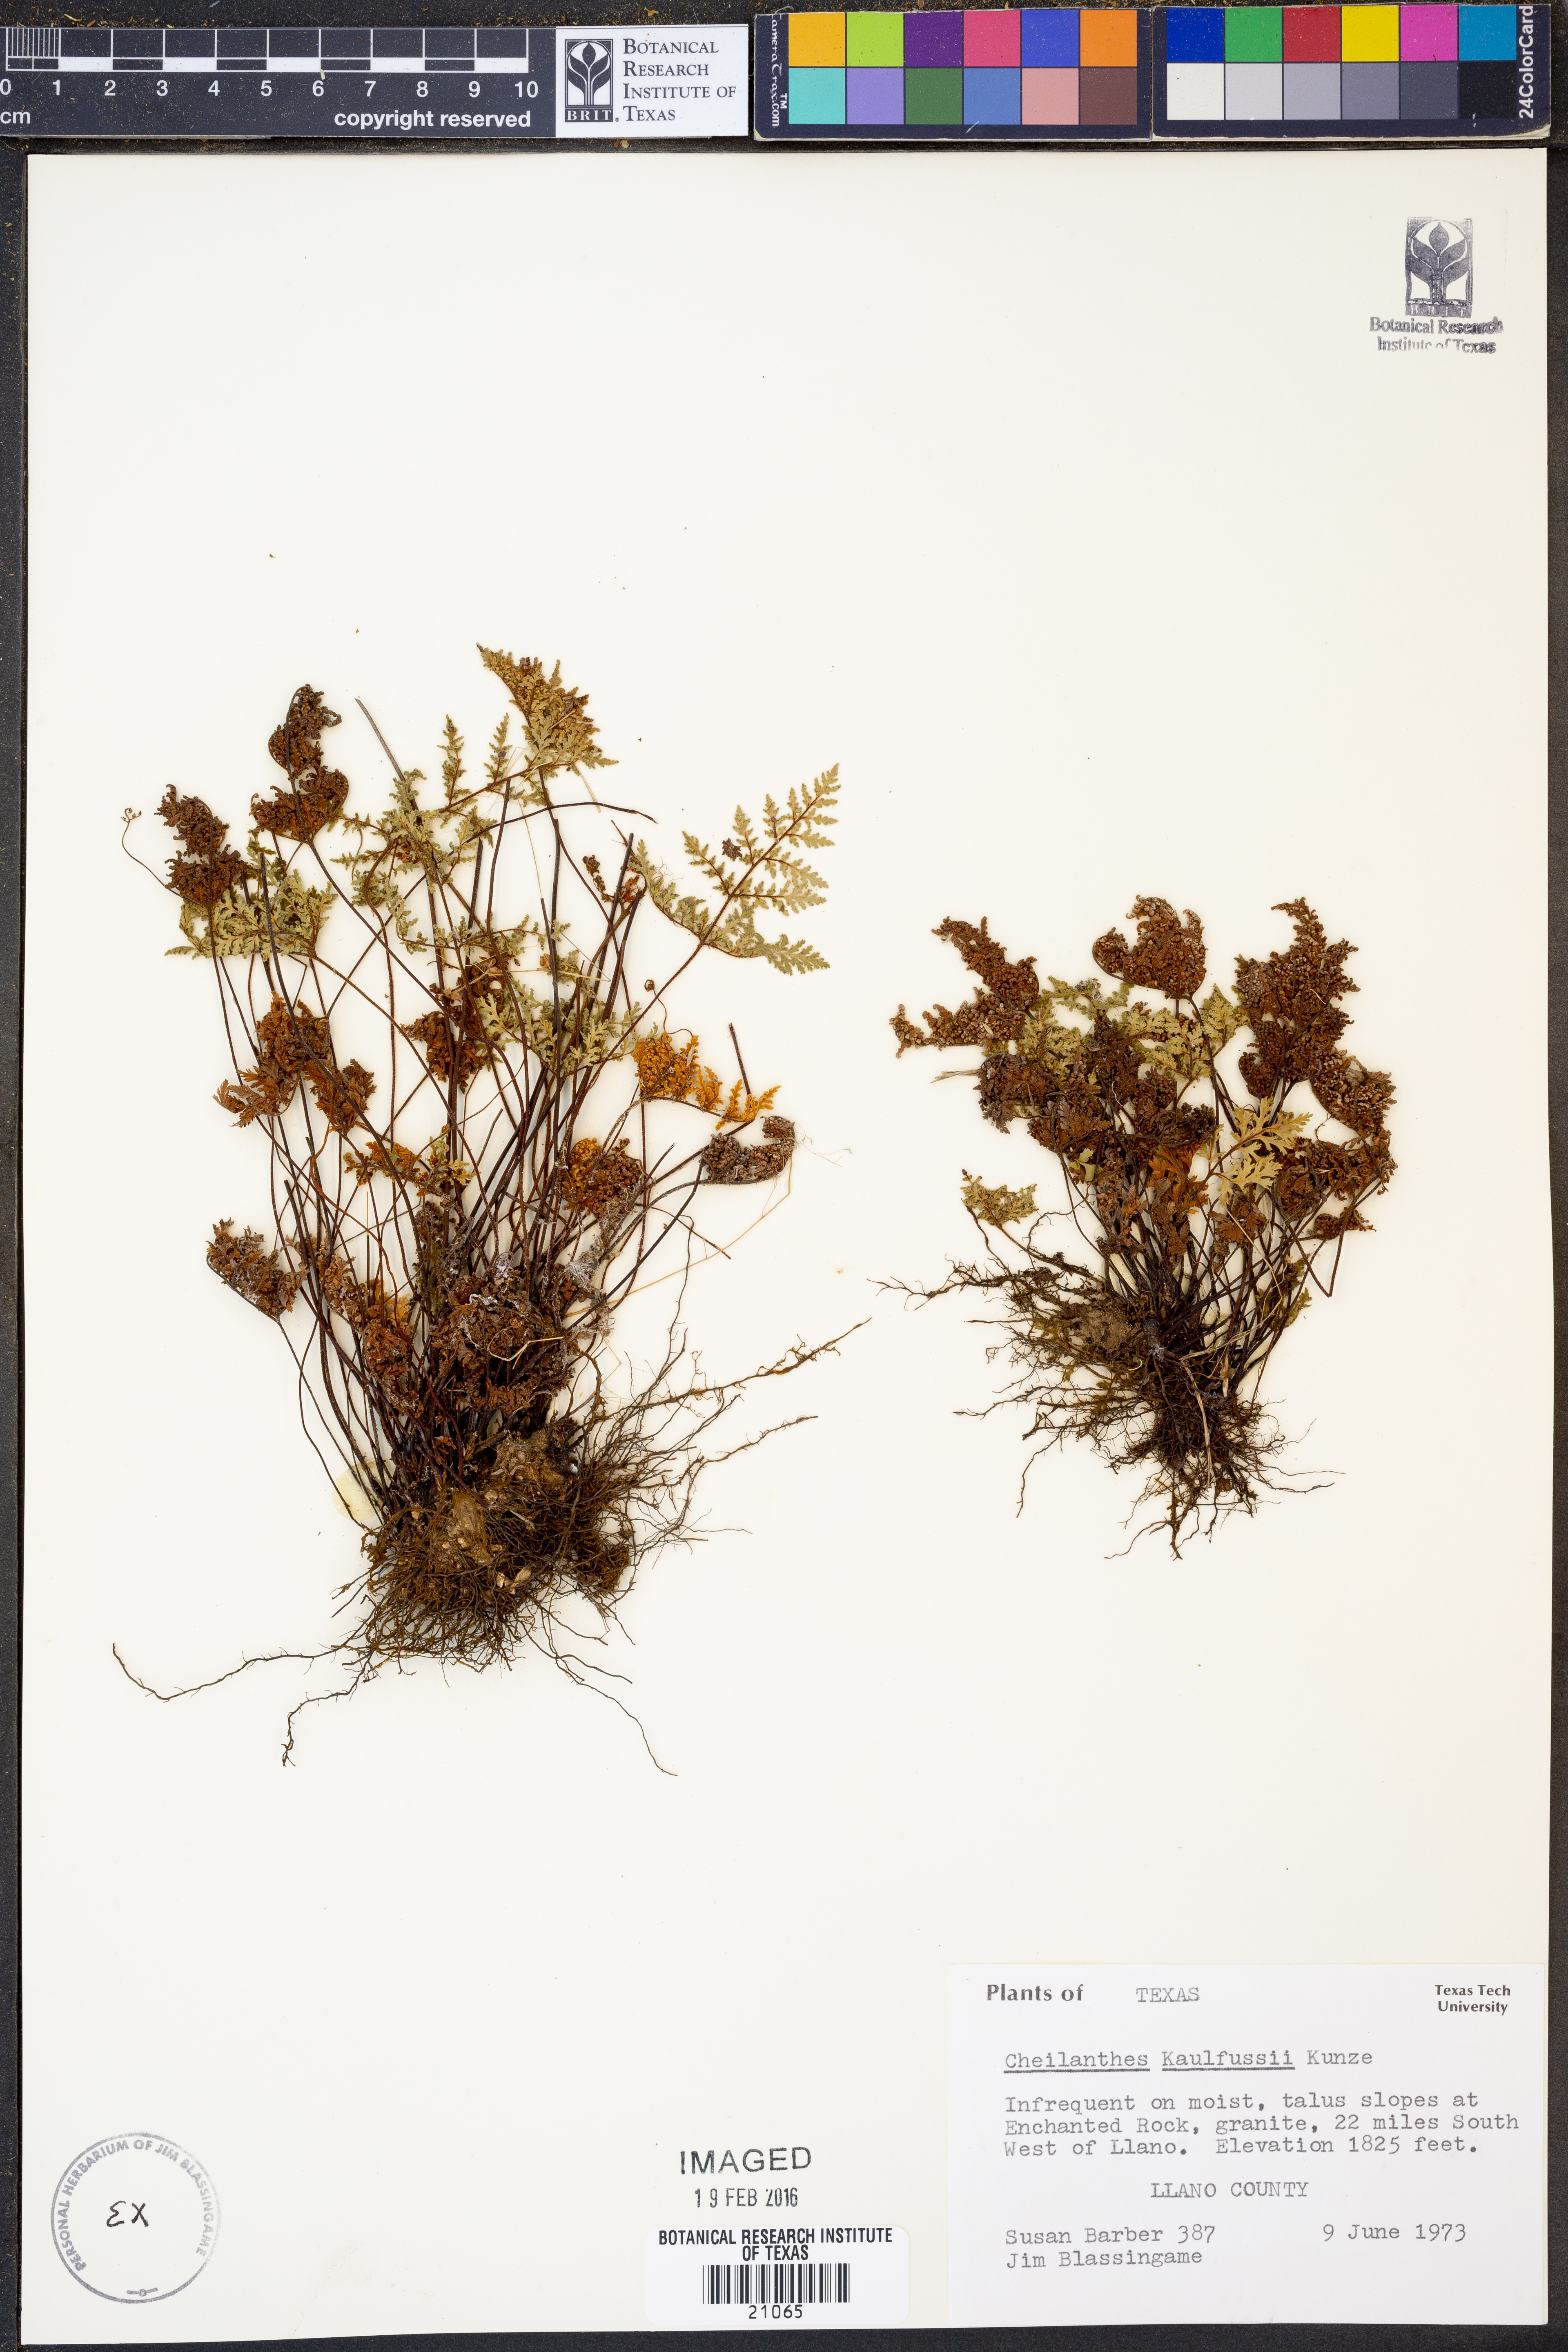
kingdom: Plantae
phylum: Tracheophyta
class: Polypodiopsida
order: Polypodiales
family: Pteridaceae
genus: Gaga
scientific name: Gaga kaulfussii
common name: Glandular lip fern
